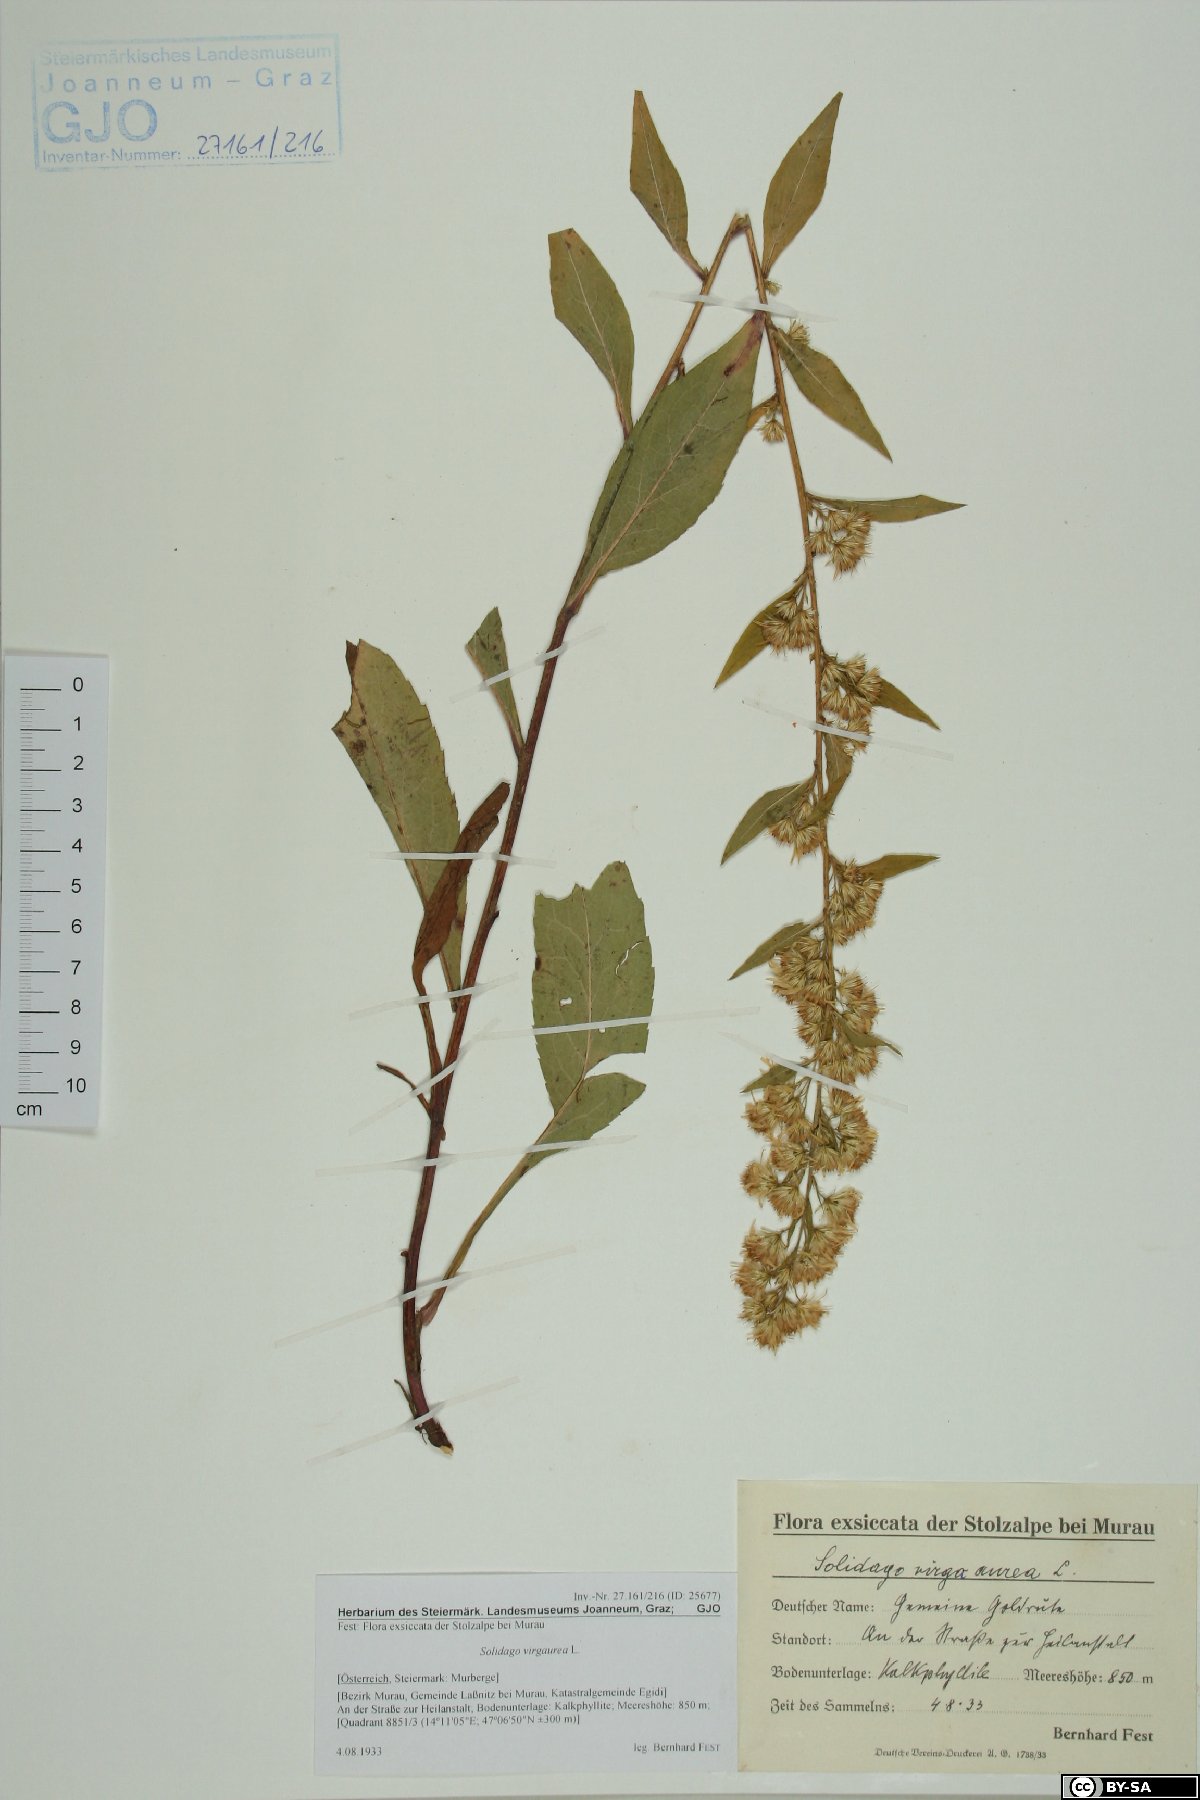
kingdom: Plantae
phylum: Tracheophyta
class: Magnoliopsida
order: Asterales
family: Asteraceae
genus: Solidago
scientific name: Solidago virgaurea
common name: Goldenrod
